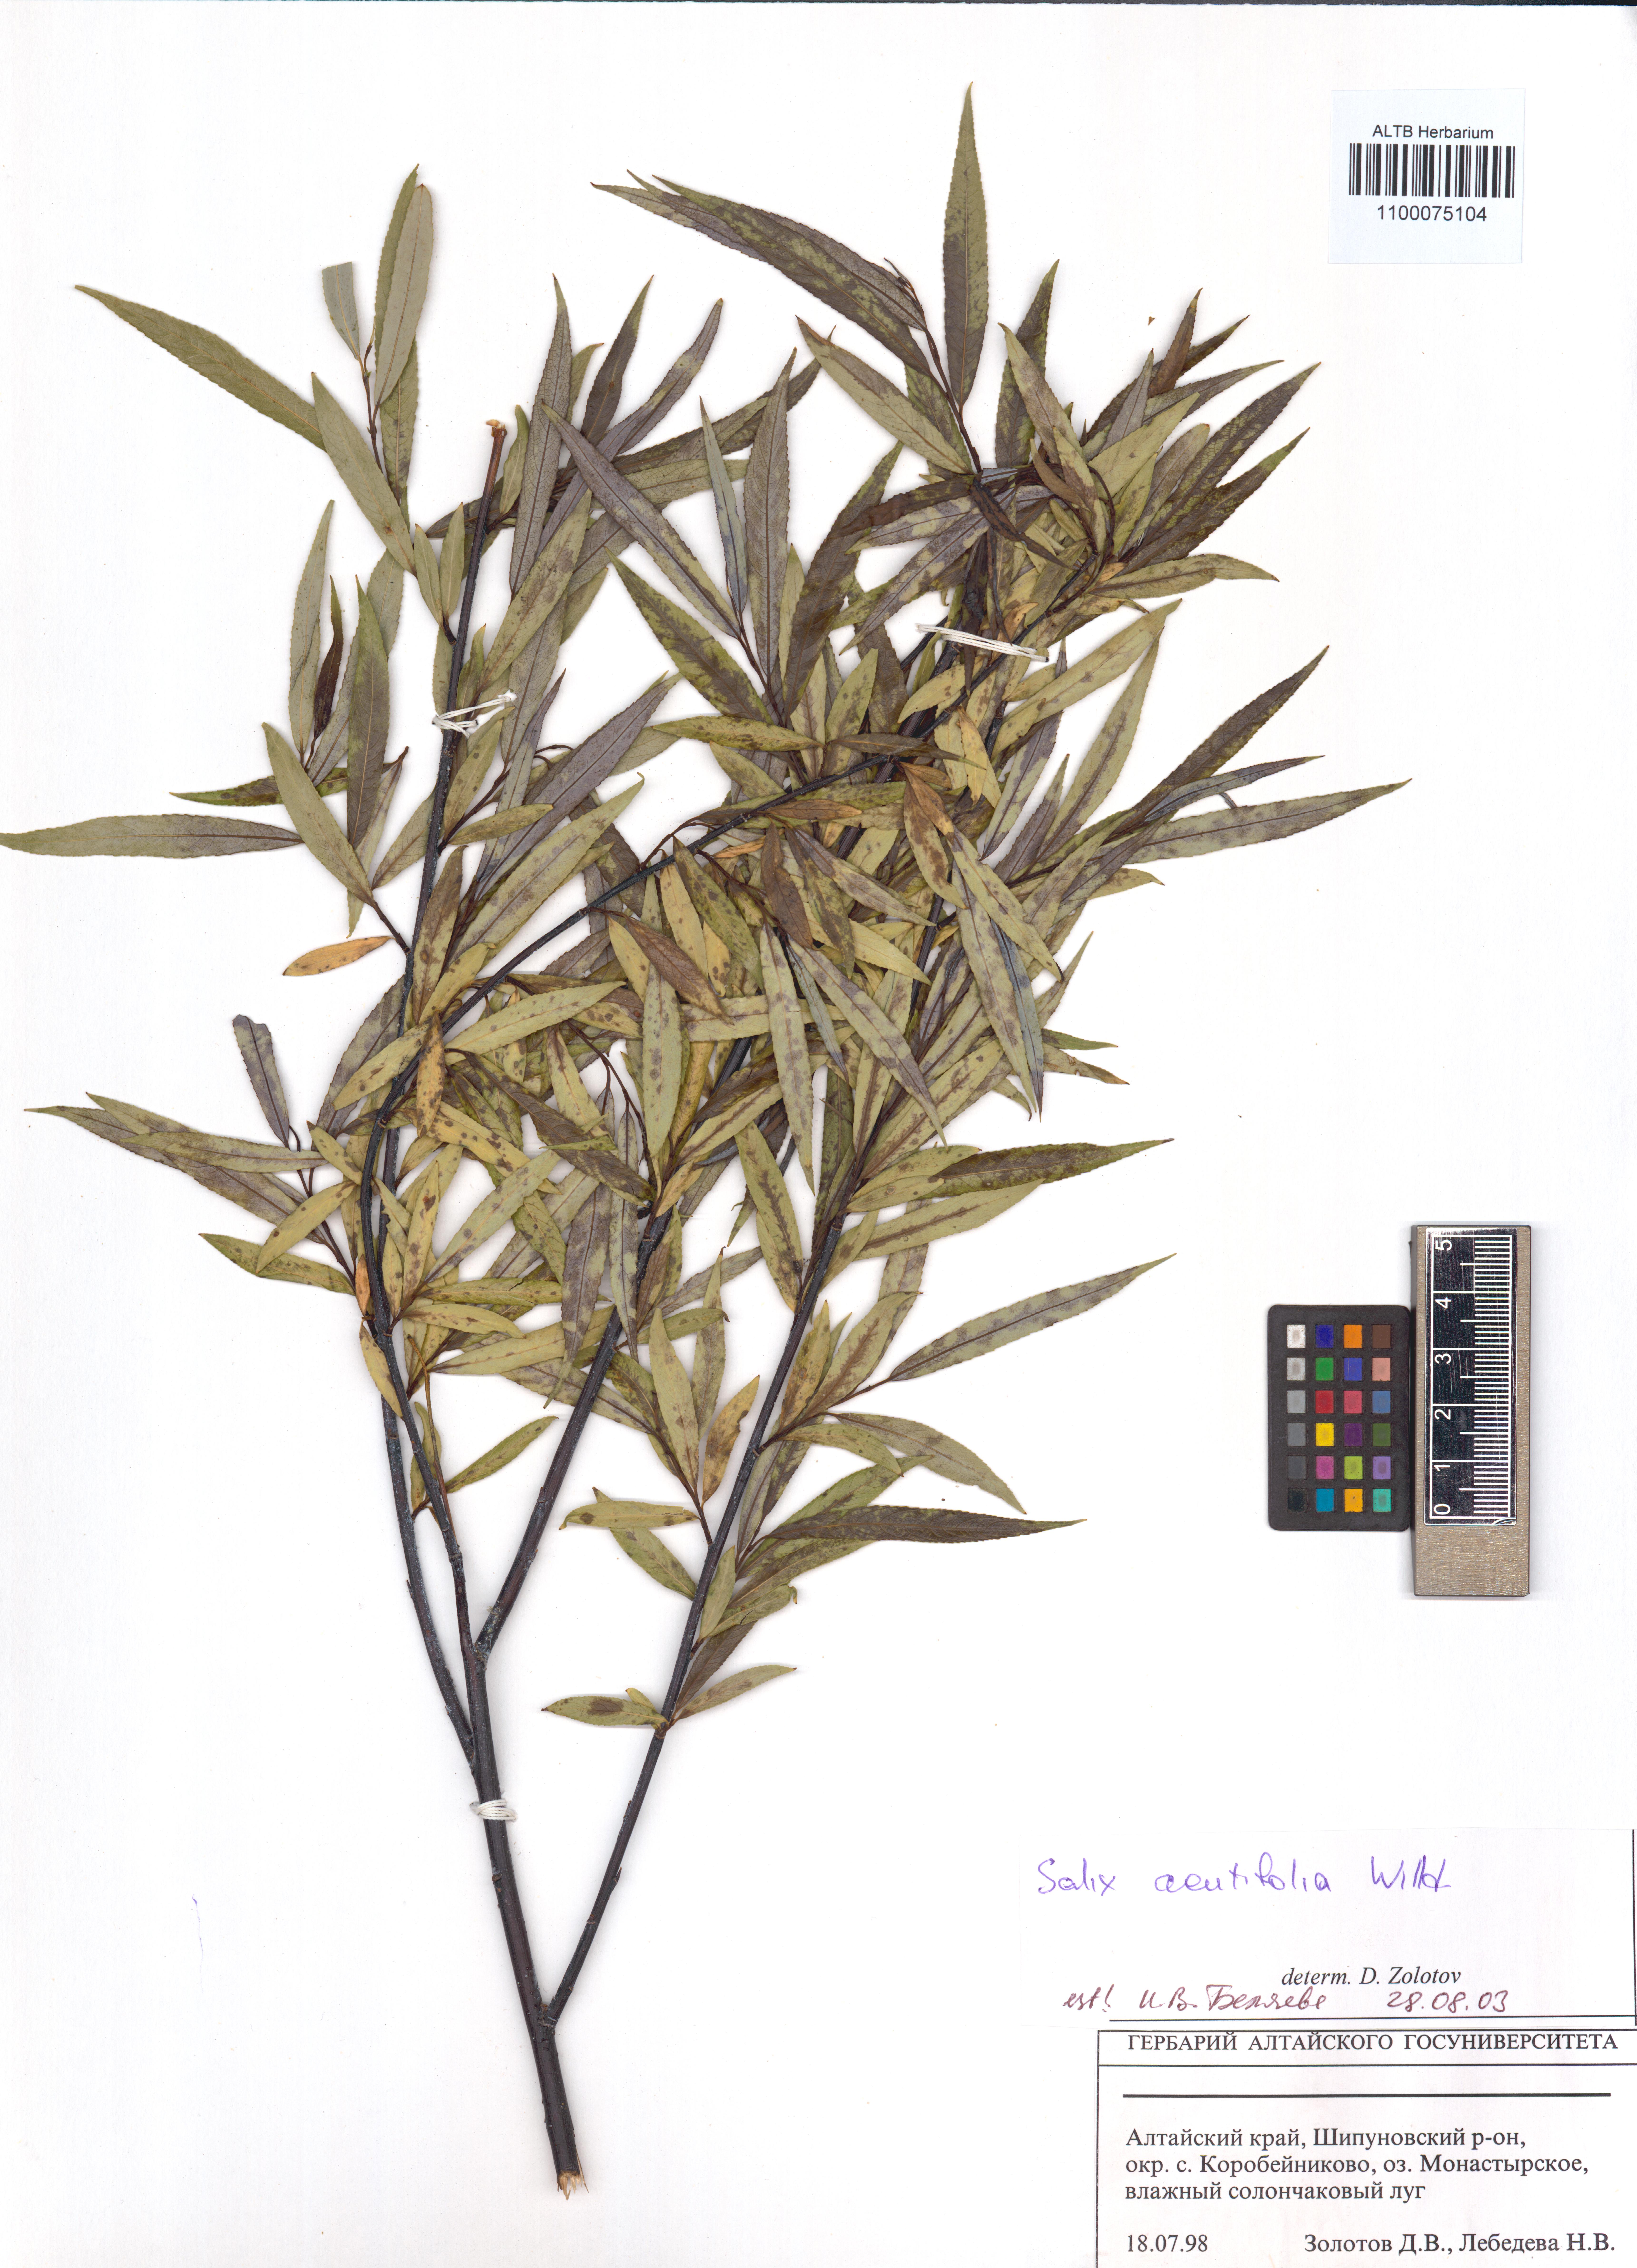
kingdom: Plantae
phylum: Tracheophyta
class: Magnoliopsida
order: Malpighiales
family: Salicaceae
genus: Salix
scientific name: Salix acutifolia
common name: Siberian violet-willow
